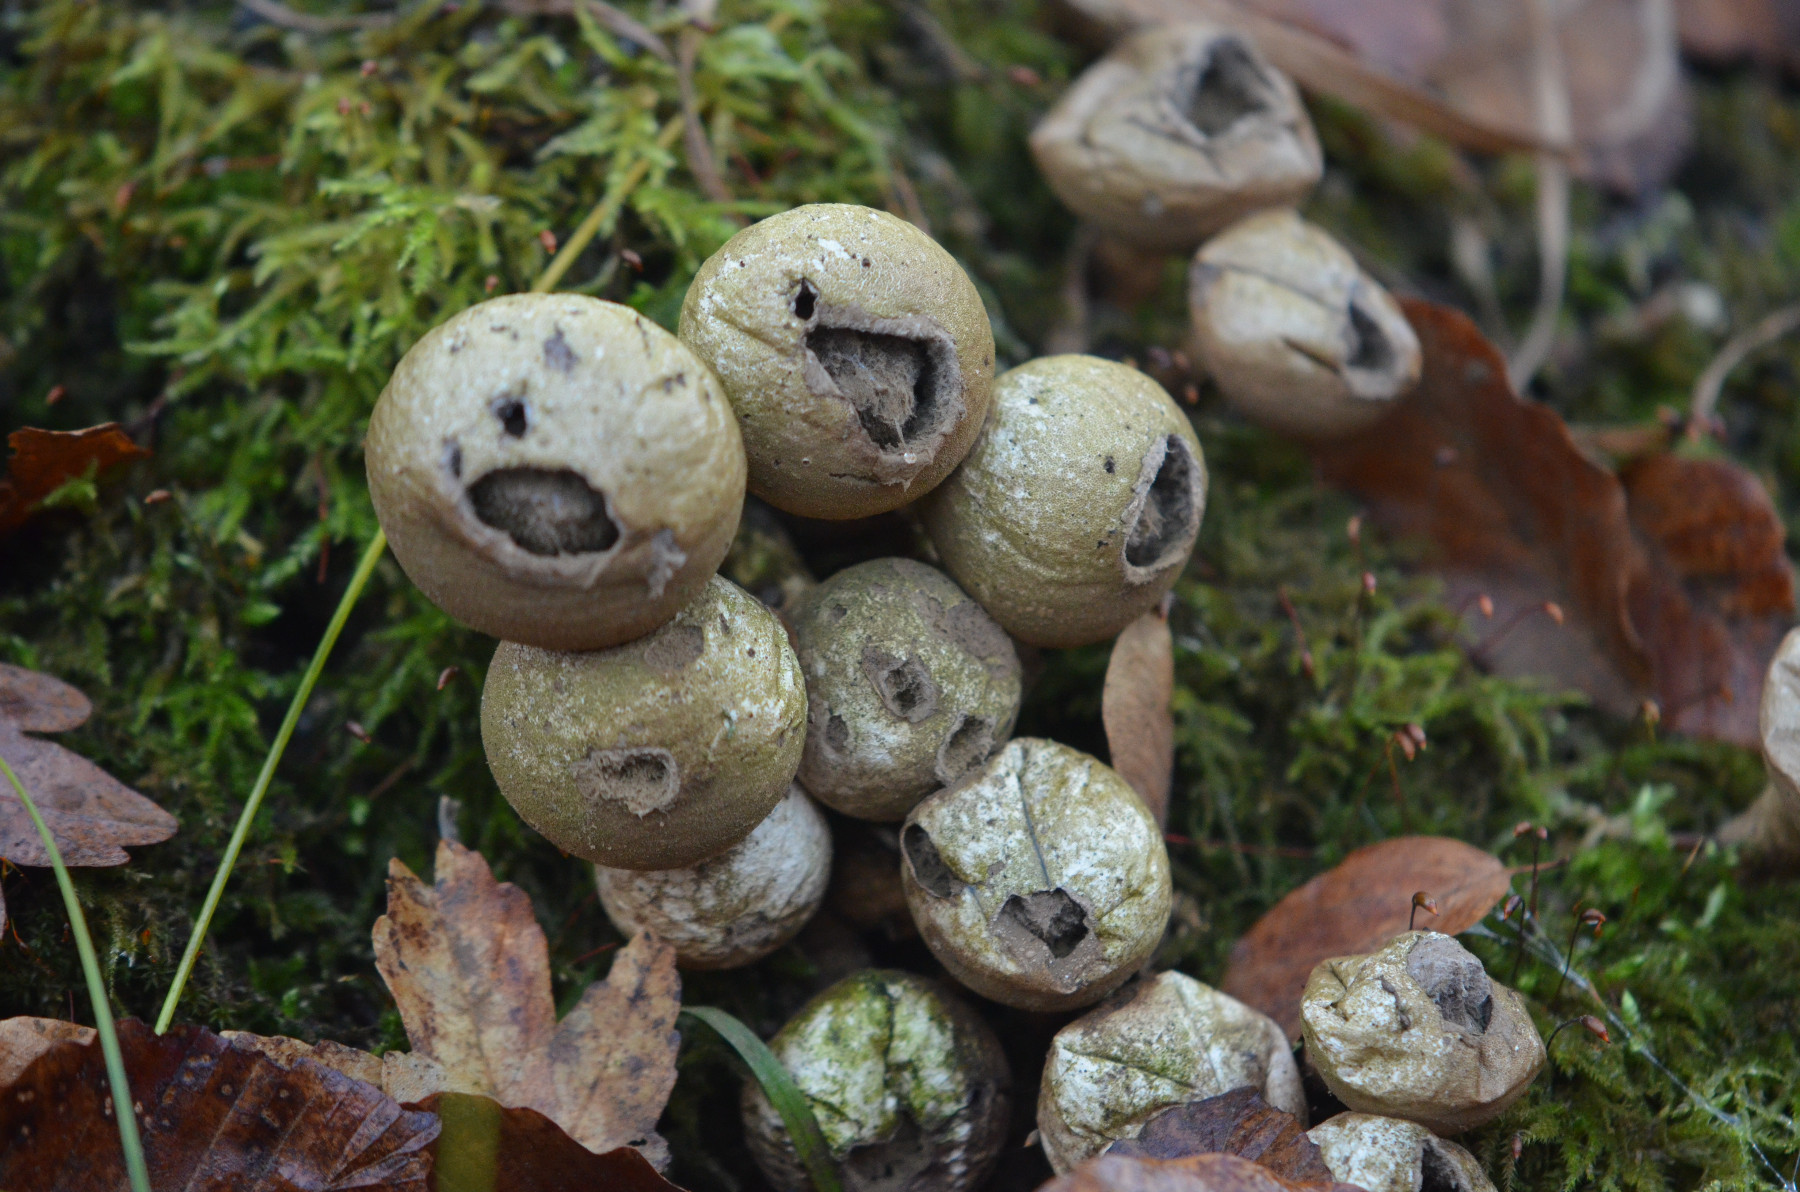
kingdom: Fungi
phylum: Basidiomycota
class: Agaricomycetes
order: Agaricales
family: Lycoperdaceae
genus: Apioperdon
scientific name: Apioperdon pyriforme
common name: pære-støvbold
